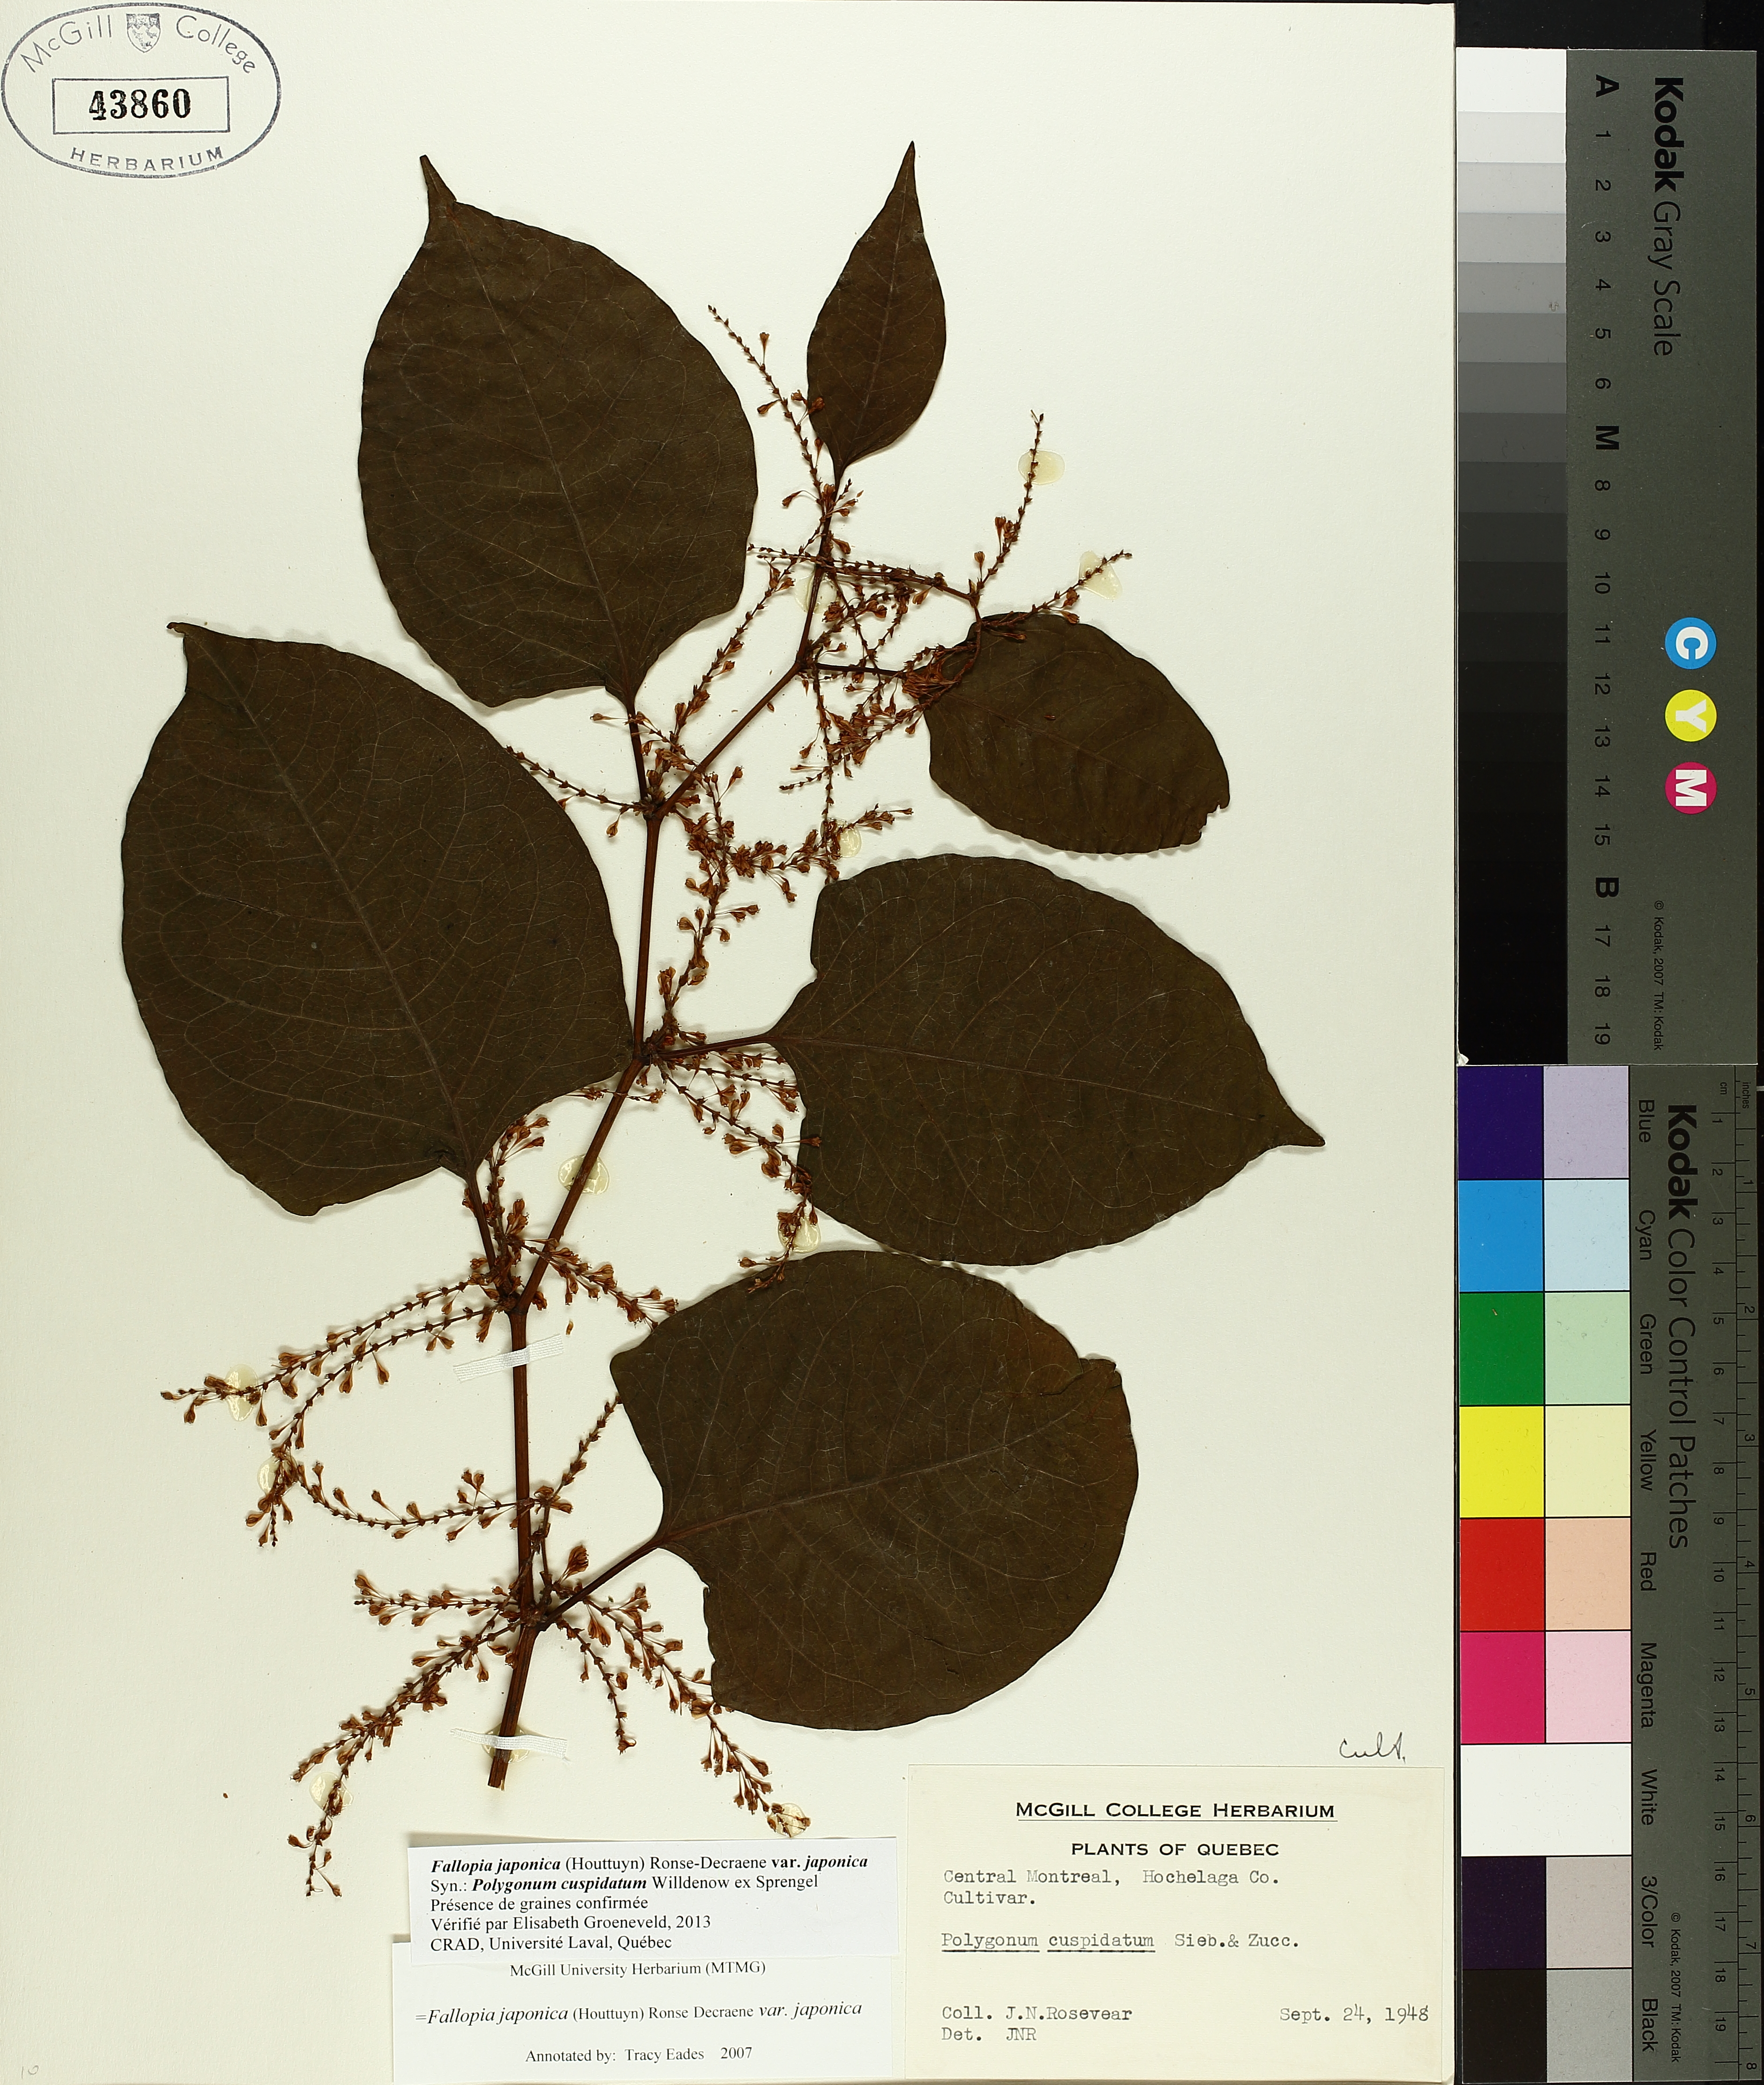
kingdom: Plantae
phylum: Tracheophyta
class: Magnoliopsida
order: Caryophyllales
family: Polygonaceae
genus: Reynoutria
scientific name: Reynoutria japonica
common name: Japanese knotweed
